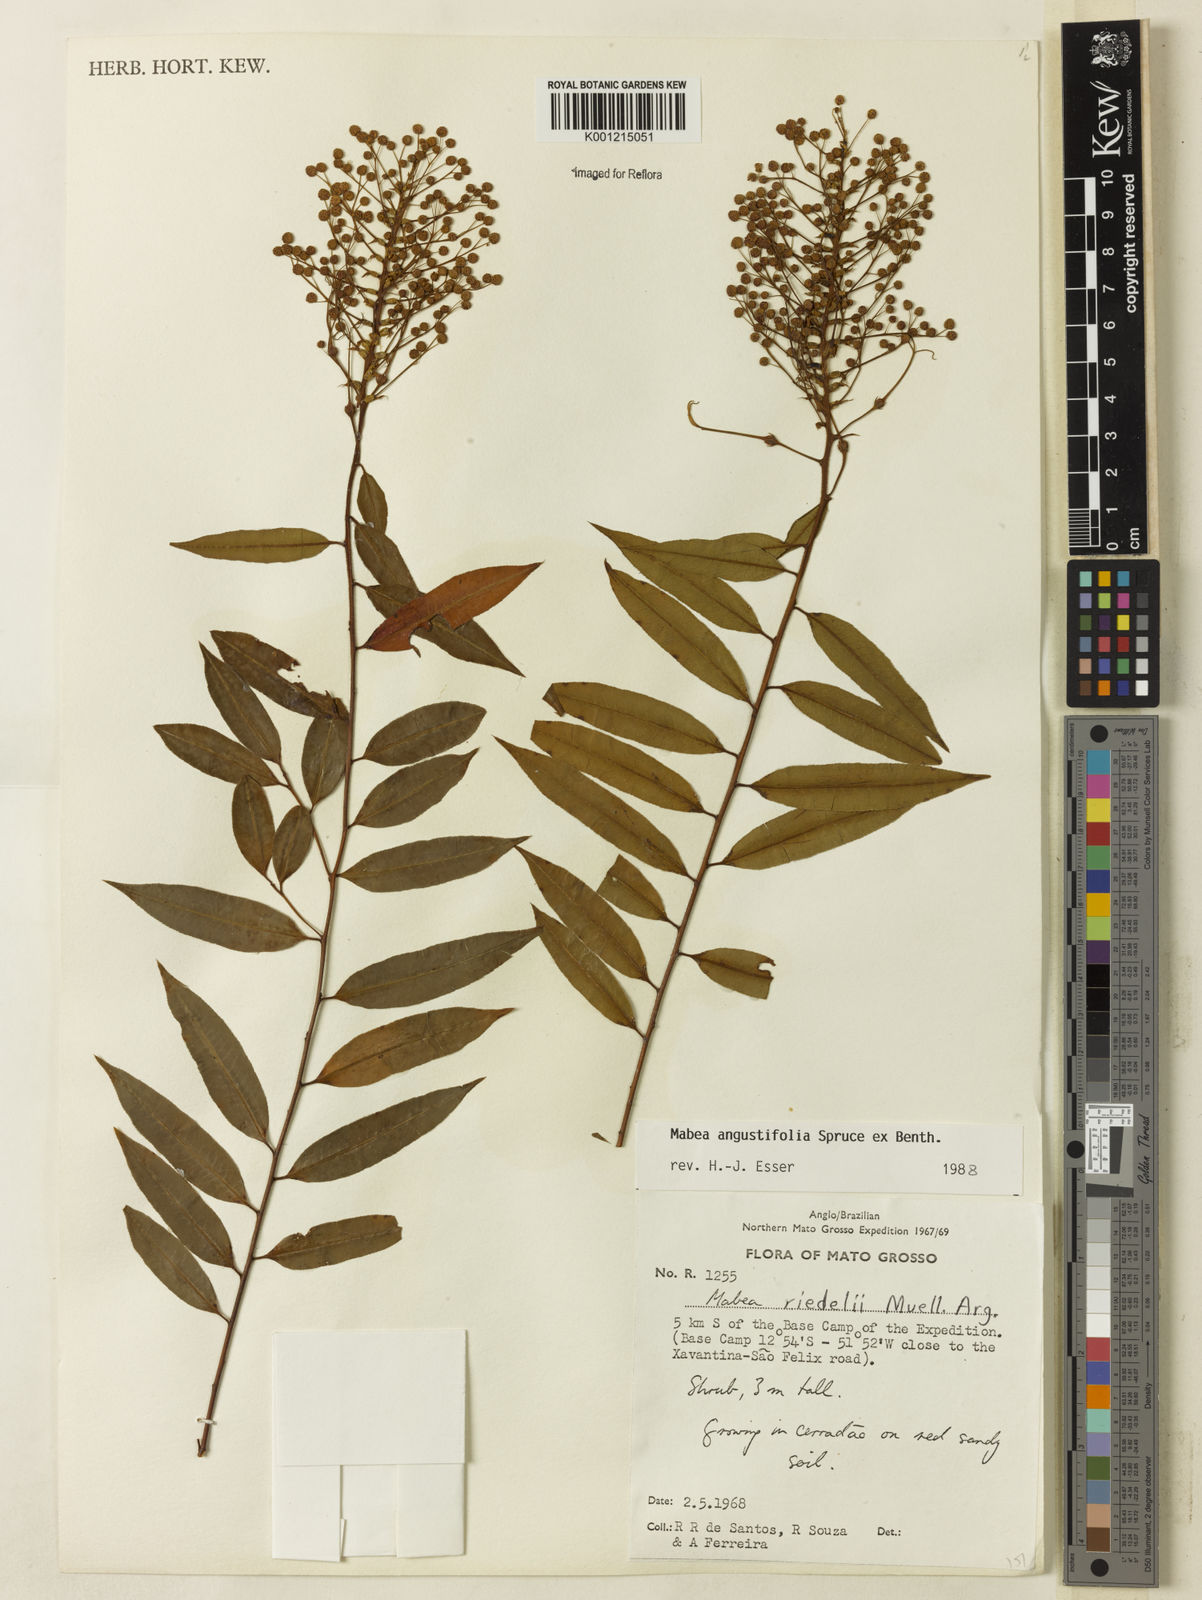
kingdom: Plantae
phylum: Tracheophyta
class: Magnoliopsida
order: Malpighiales
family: Euphorbiaceae
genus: Mabea
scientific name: Mabea
